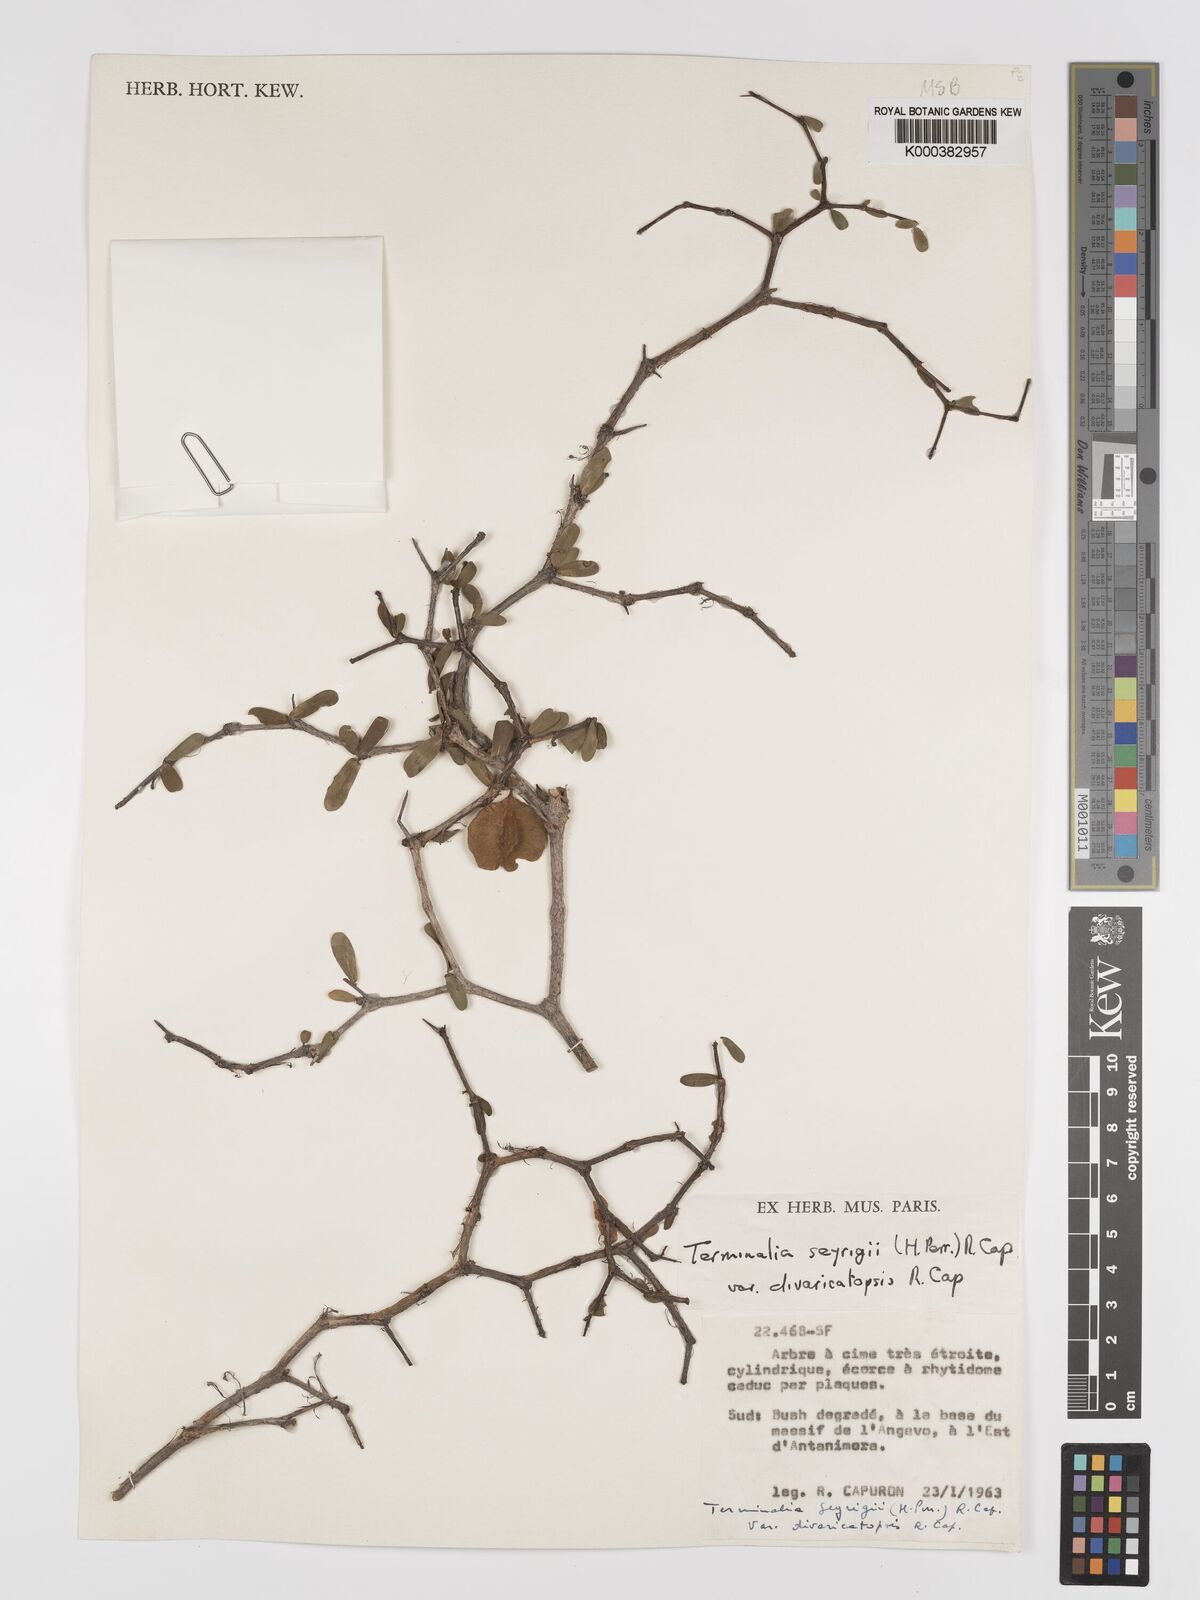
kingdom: Plantae
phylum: Tracheophyta
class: Magnoliopsida
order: Myrtales
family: Combretaceae
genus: Terminalia
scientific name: Terminalia
